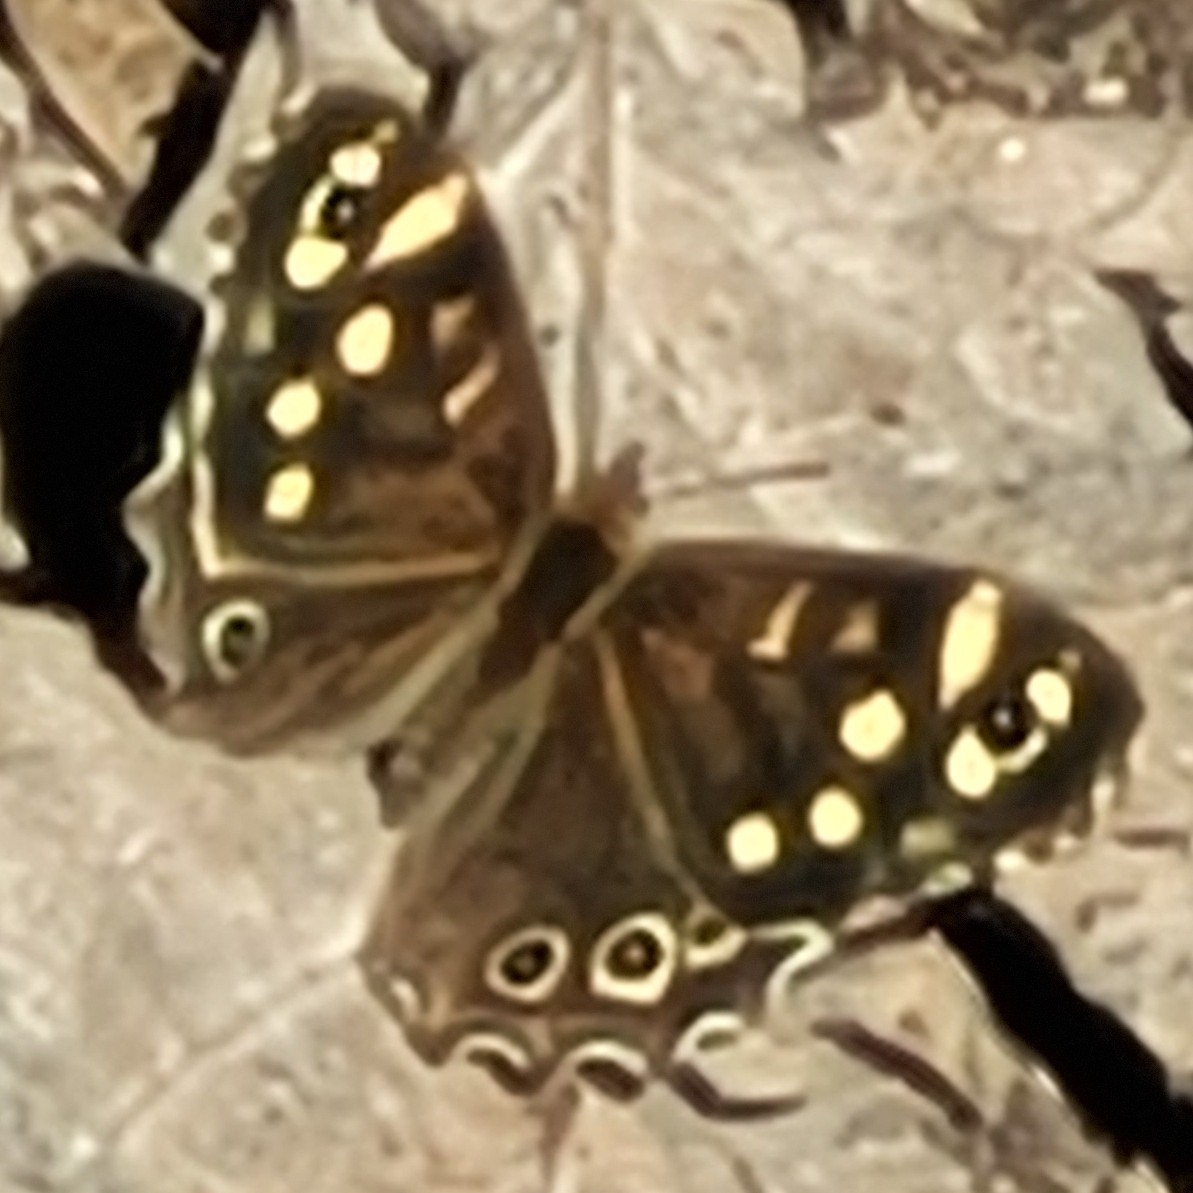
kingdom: Animalia
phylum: Arthropoda
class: Insecta
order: Lepidoptera
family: Nymphalidae
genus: Pararge
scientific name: Pararge aegeria
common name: Skovrandøje
